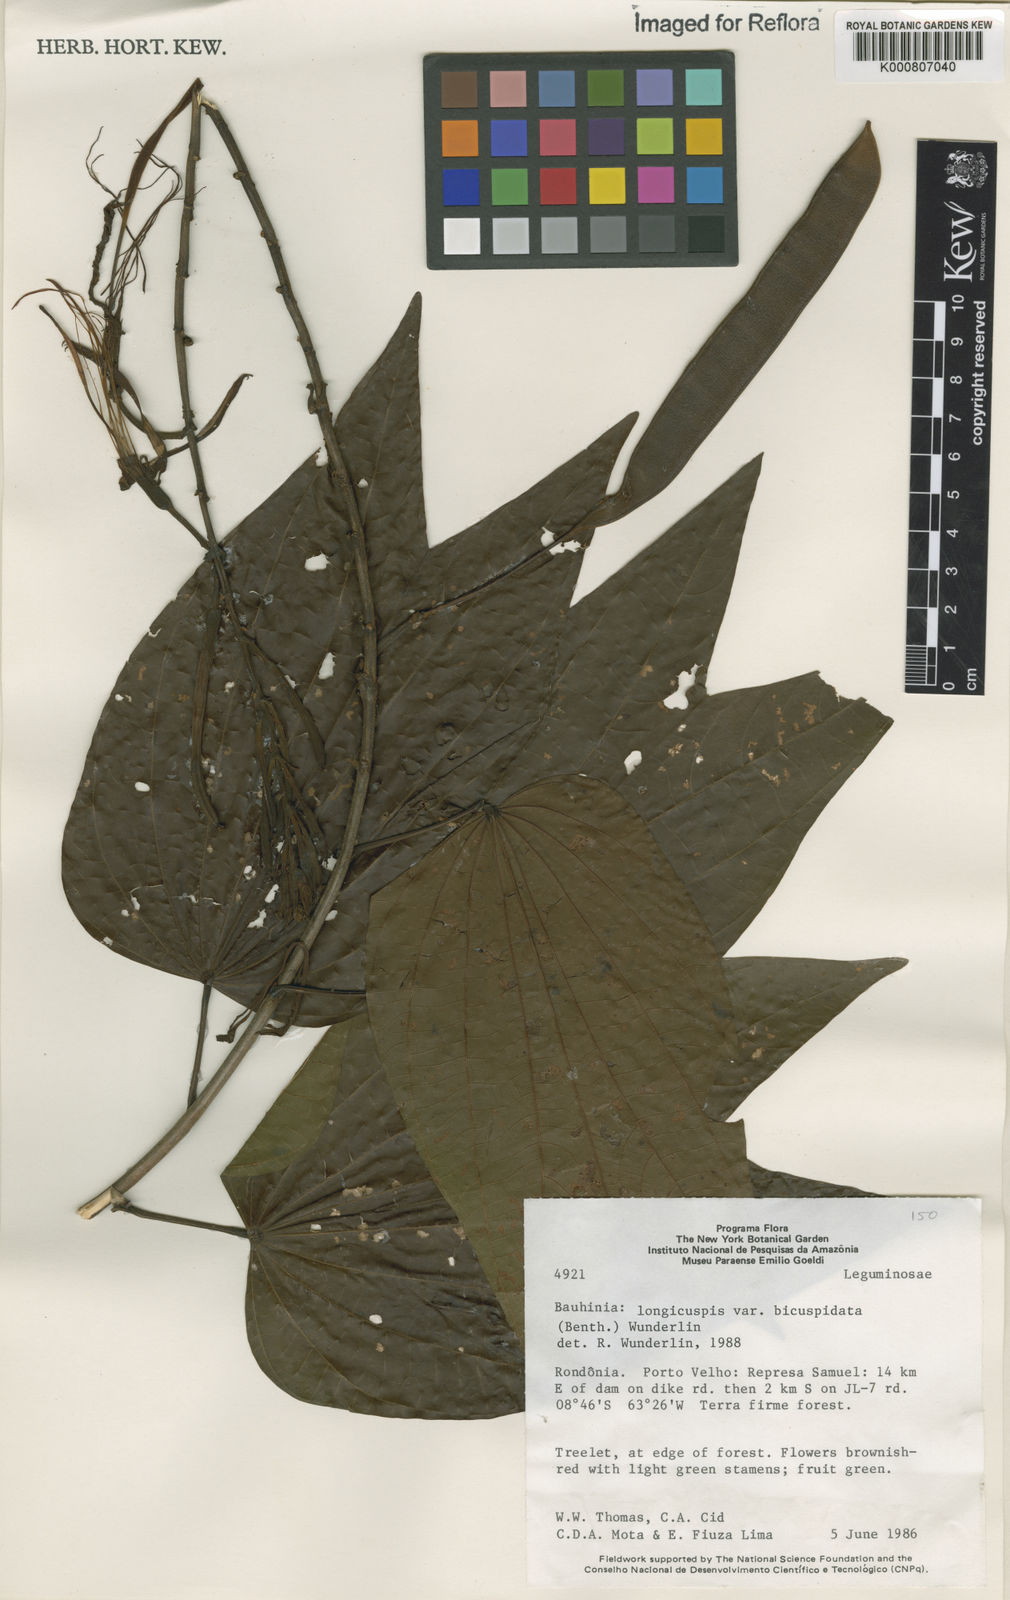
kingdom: Plantae
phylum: Tracheophyta
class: Magnoliopsida
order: Fabales
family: Fabaceae
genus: Bauhinia
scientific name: Bauhinia longicuspis
